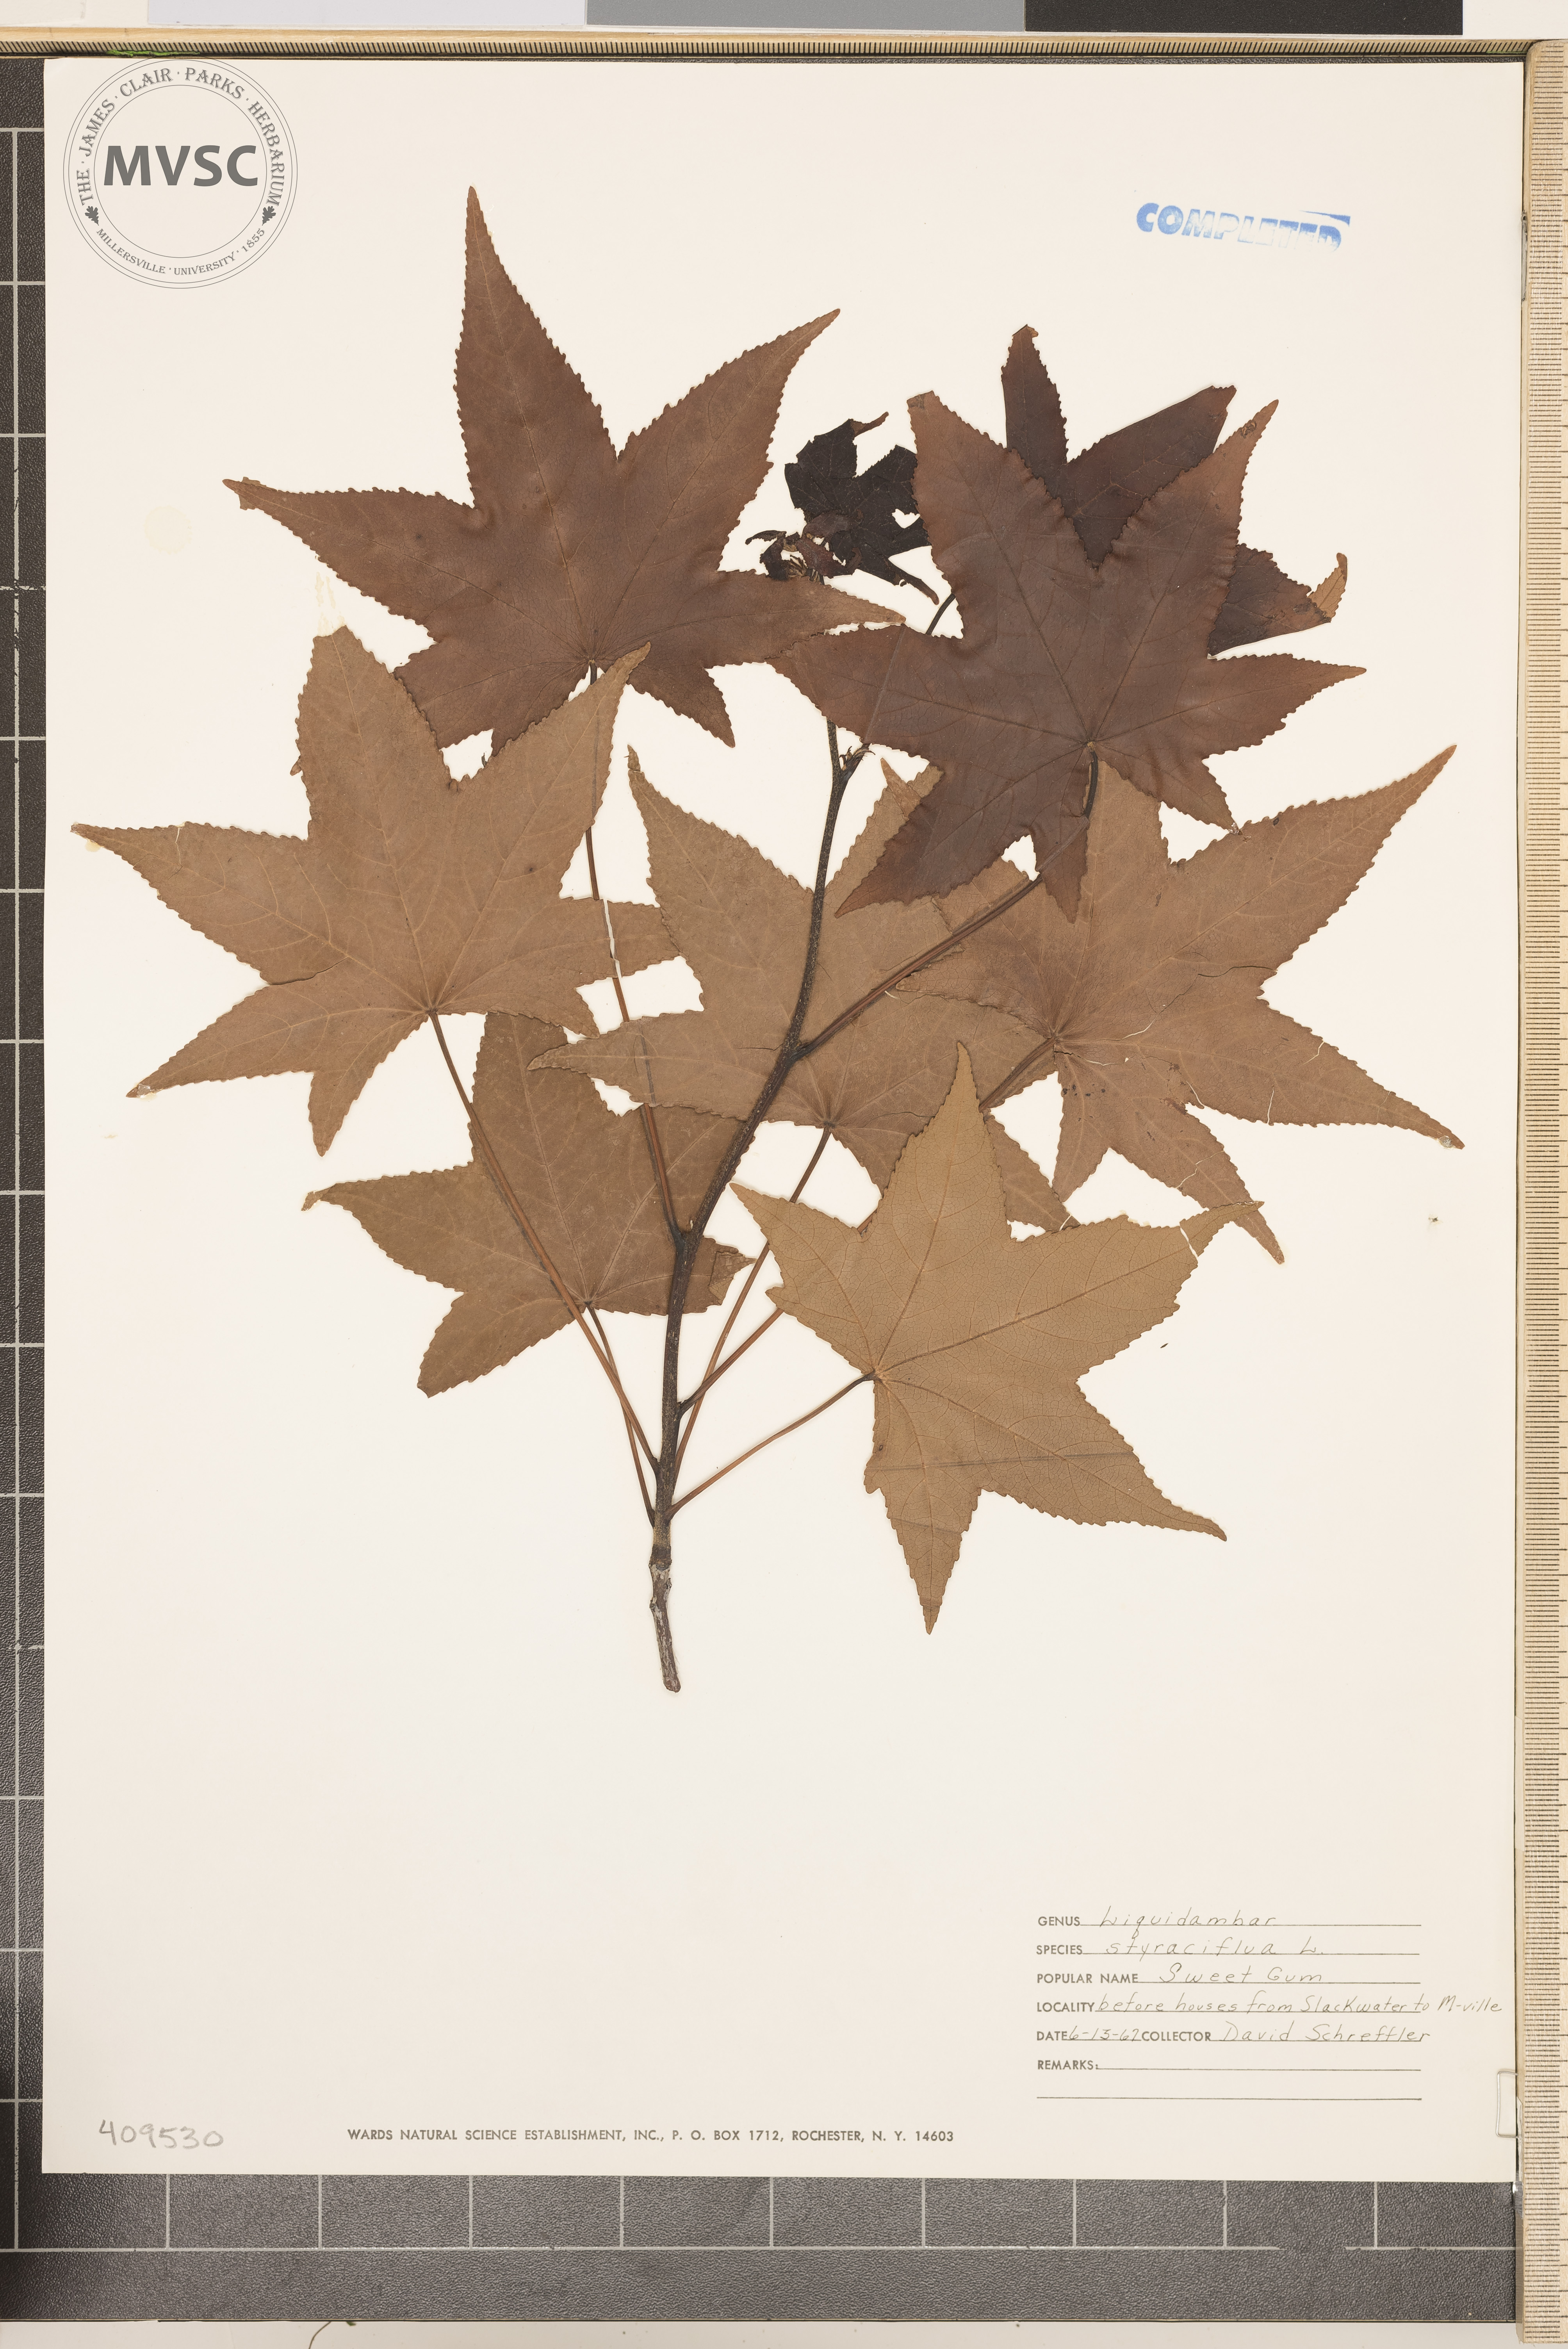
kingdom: Plantae
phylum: Tracheophyta
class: Magnoliopsida
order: Saxifragales
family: Altingiaceae
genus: Liquidambar
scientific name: Liquidambar styraciflua
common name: Sweet gum
